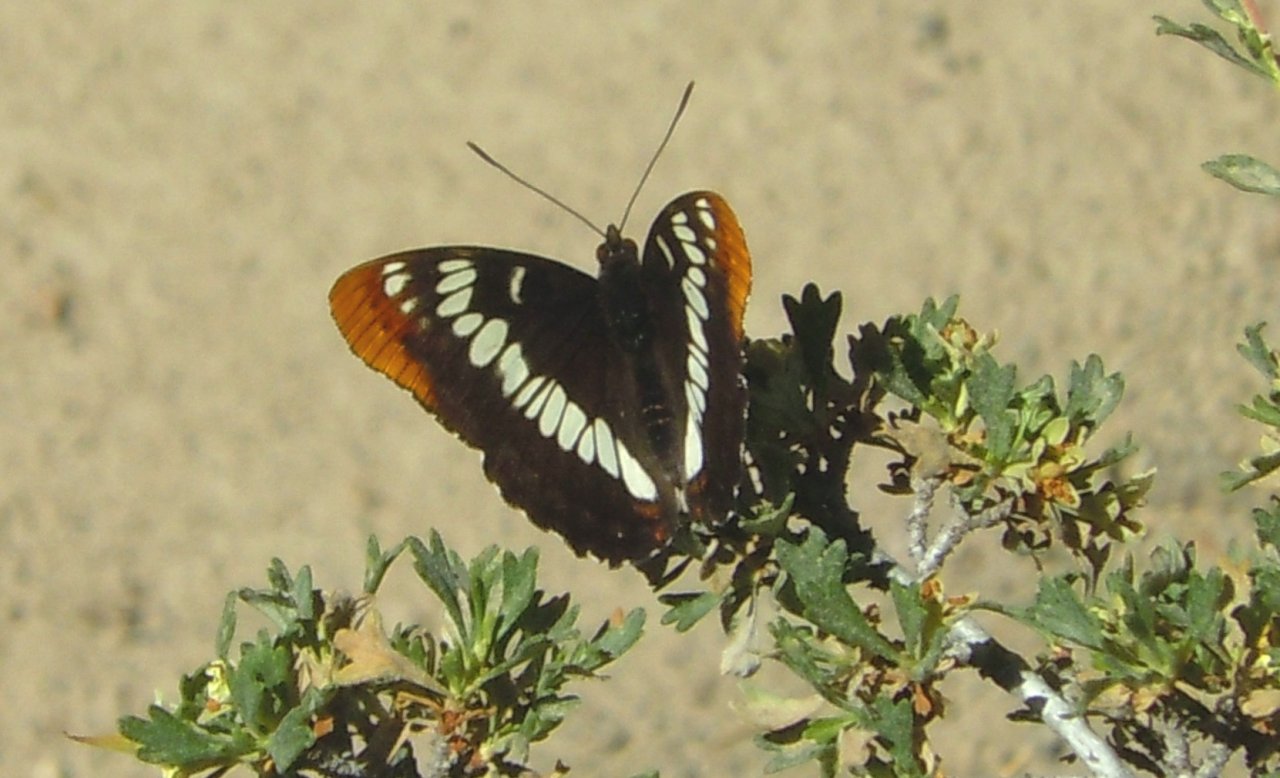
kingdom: Animalia
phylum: Arthropoda
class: Insecta
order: Lepidoptera
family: Nymphalidae
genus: Limenitis
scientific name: Limenitis lorquini
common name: Lorquin's Admiral
